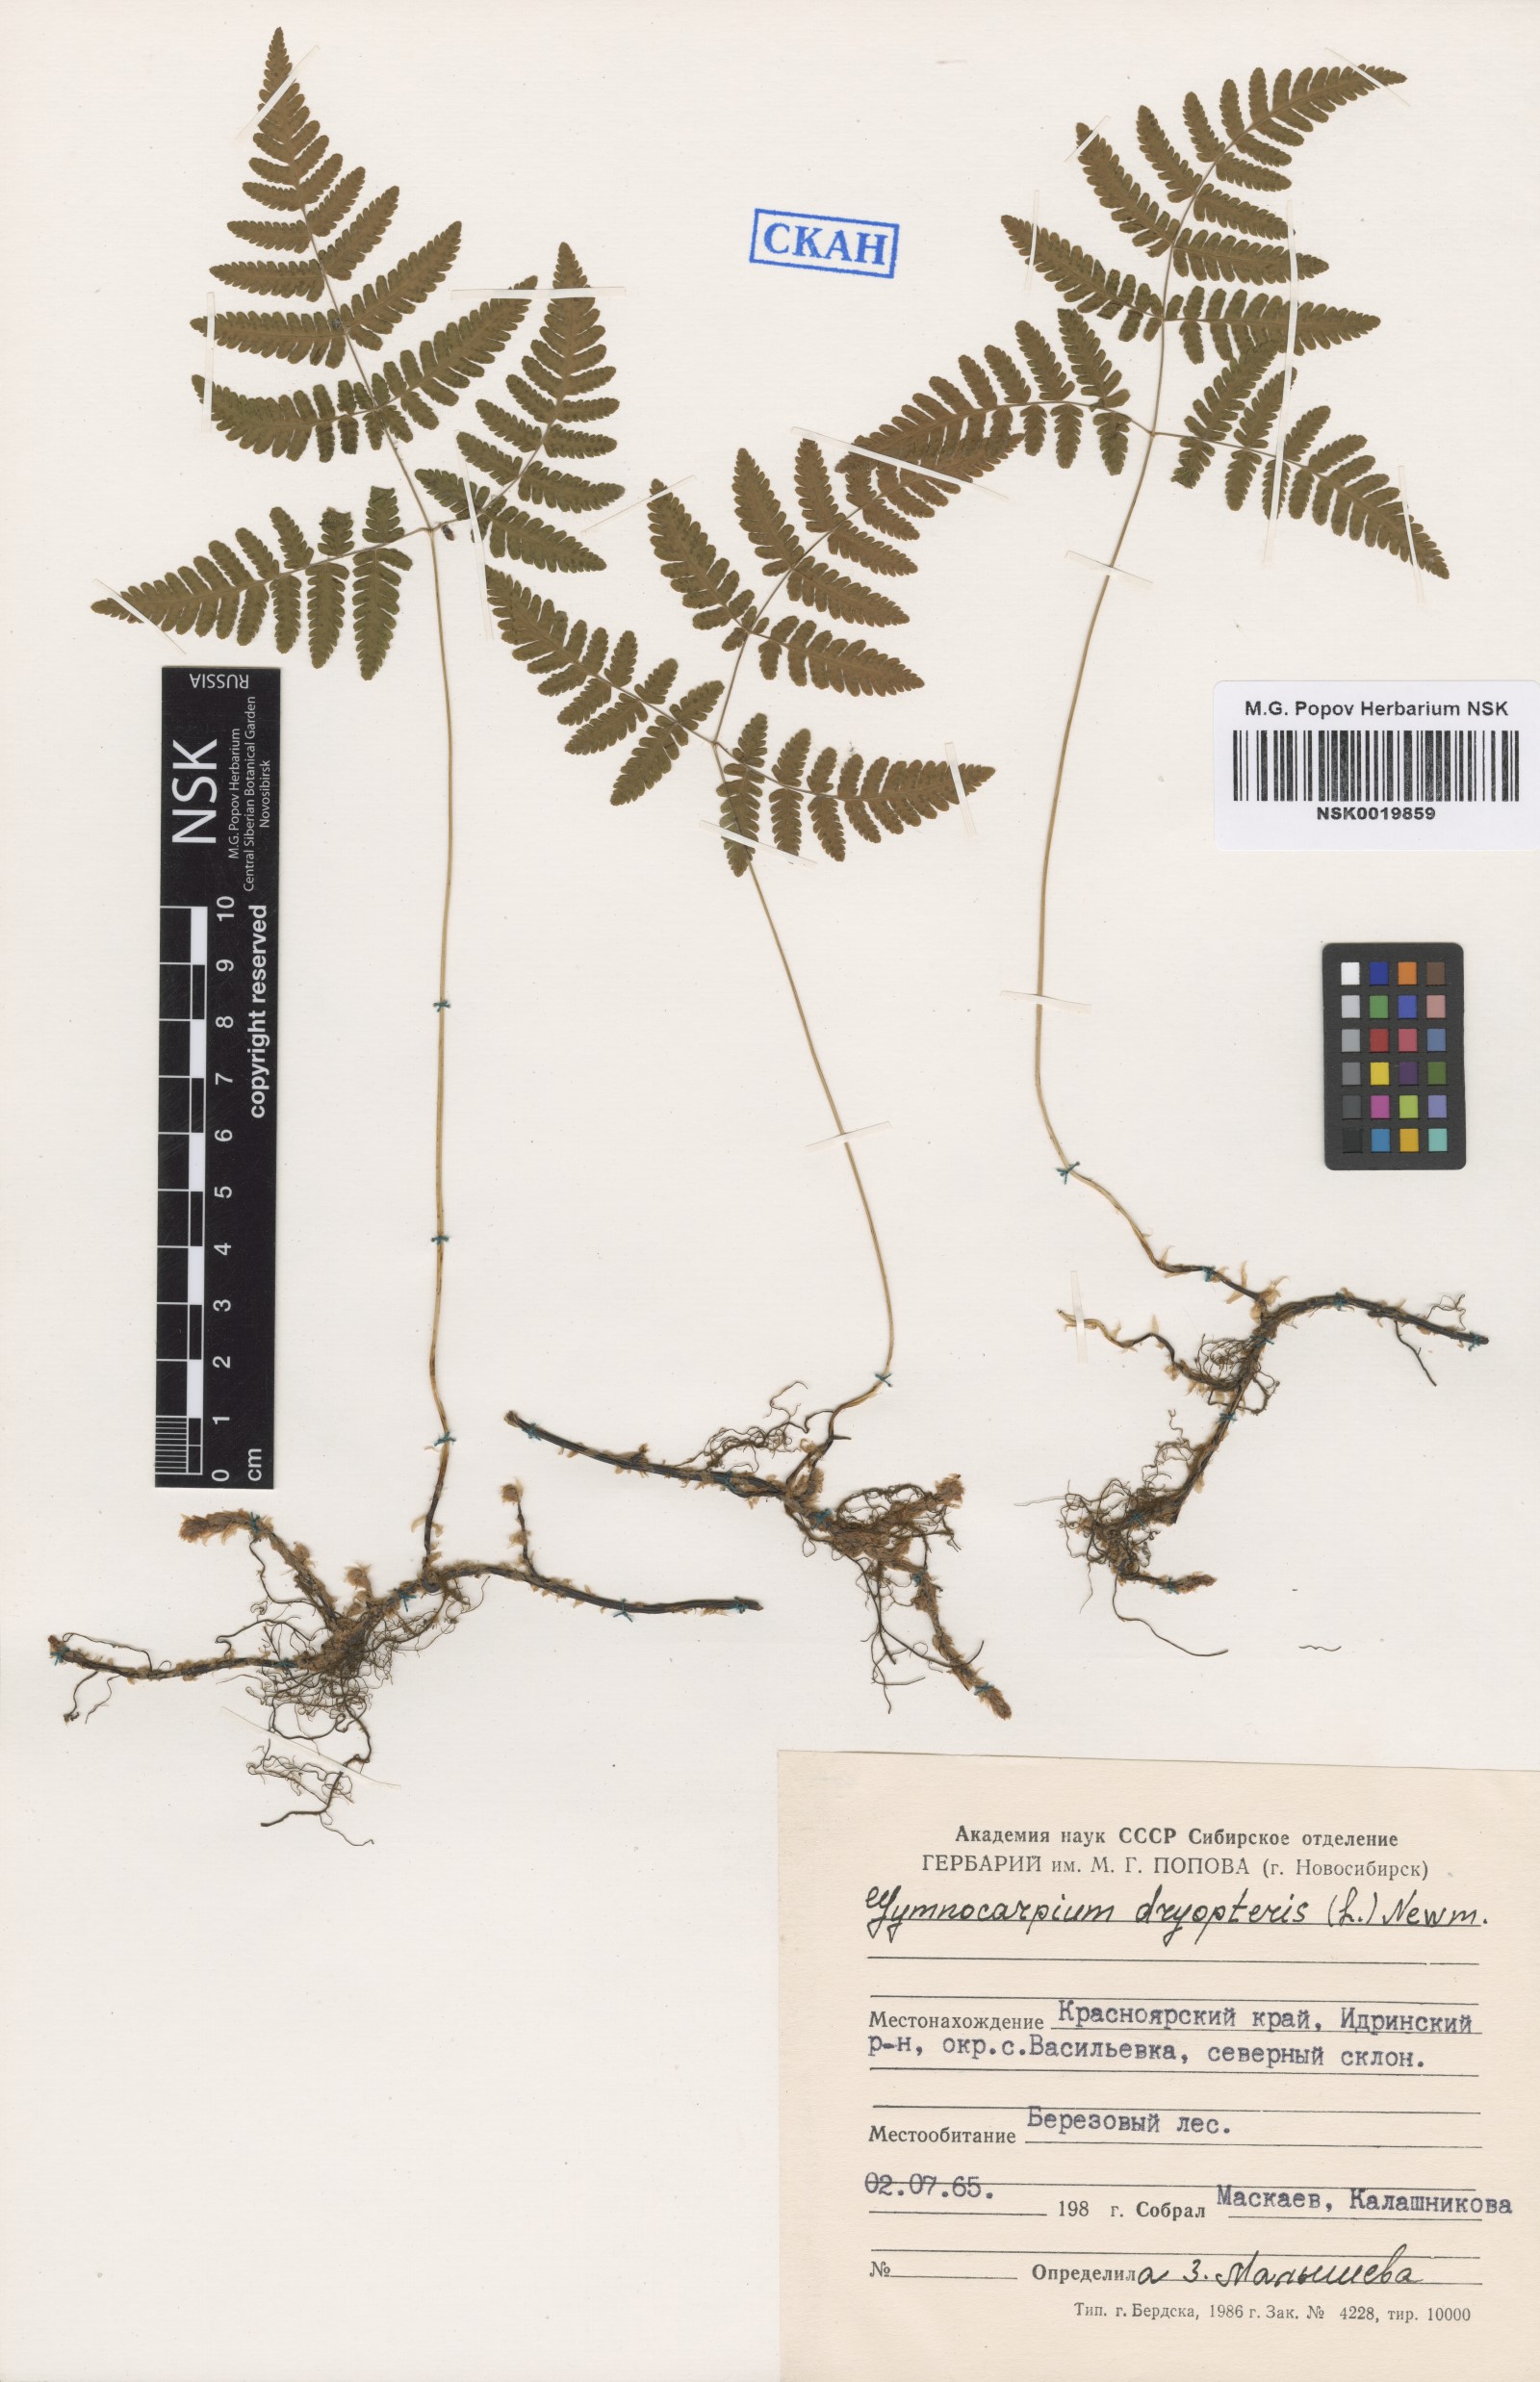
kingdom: Plantae
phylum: Tracheophyta
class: Polypodiopsida
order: Polypodiales
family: Cystopteridaceae
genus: Gymnocarpium
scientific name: Gymnocarpium dryopteris
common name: Oak fern
